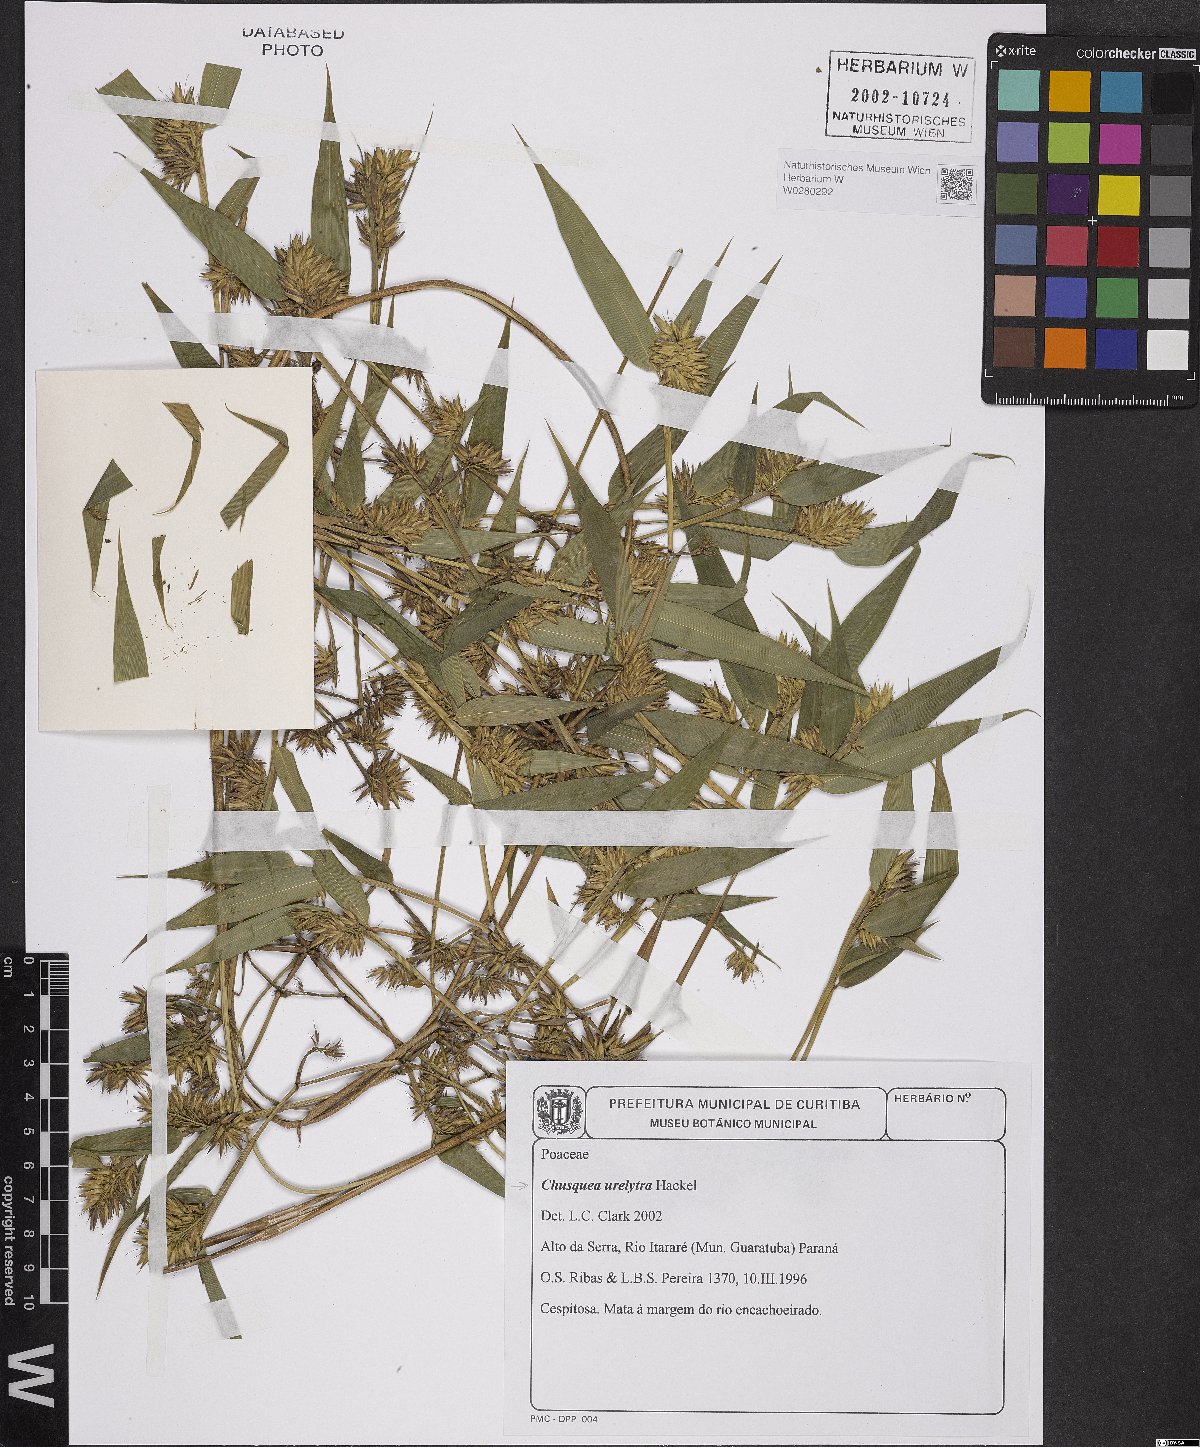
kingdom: Plantae
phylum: Tracheophyta
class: Liliopsida
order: Poales
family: Poaceae
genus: Chusquea
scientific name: Chusquea urelytra
